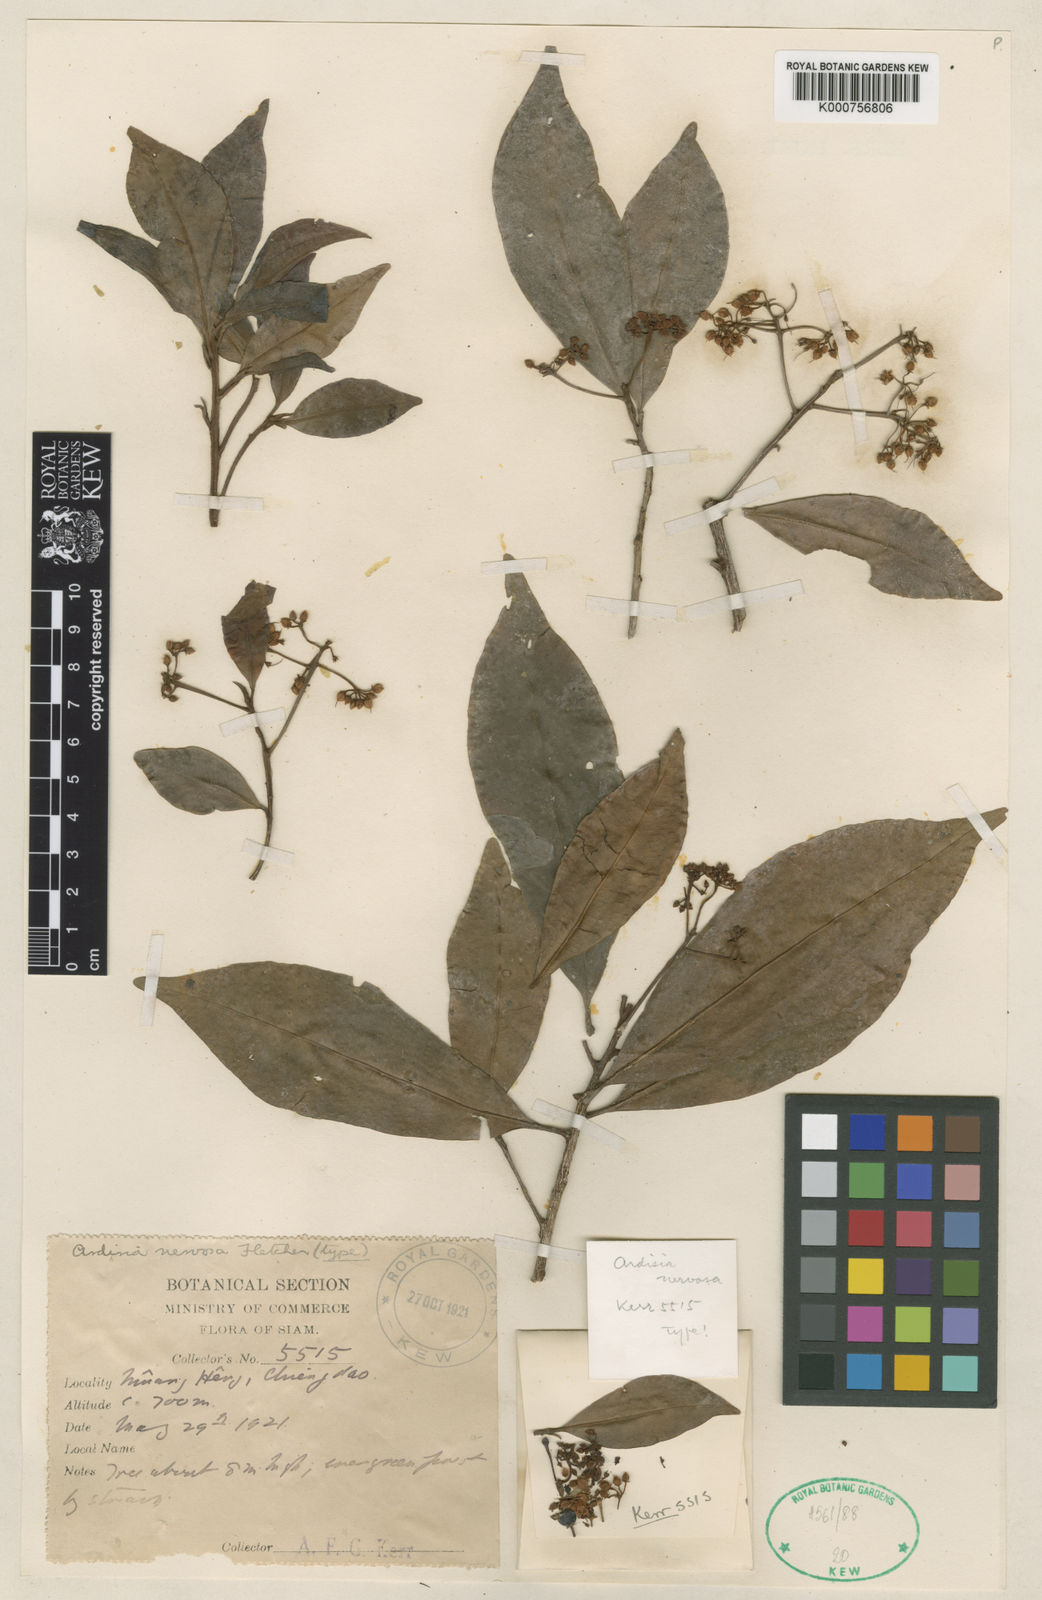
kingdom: Plantae
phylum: Tracheophyta
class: Magnoliopsida
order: Ericales
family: Primulaceae
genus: Ardisia
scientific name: Ardisia nervosa
